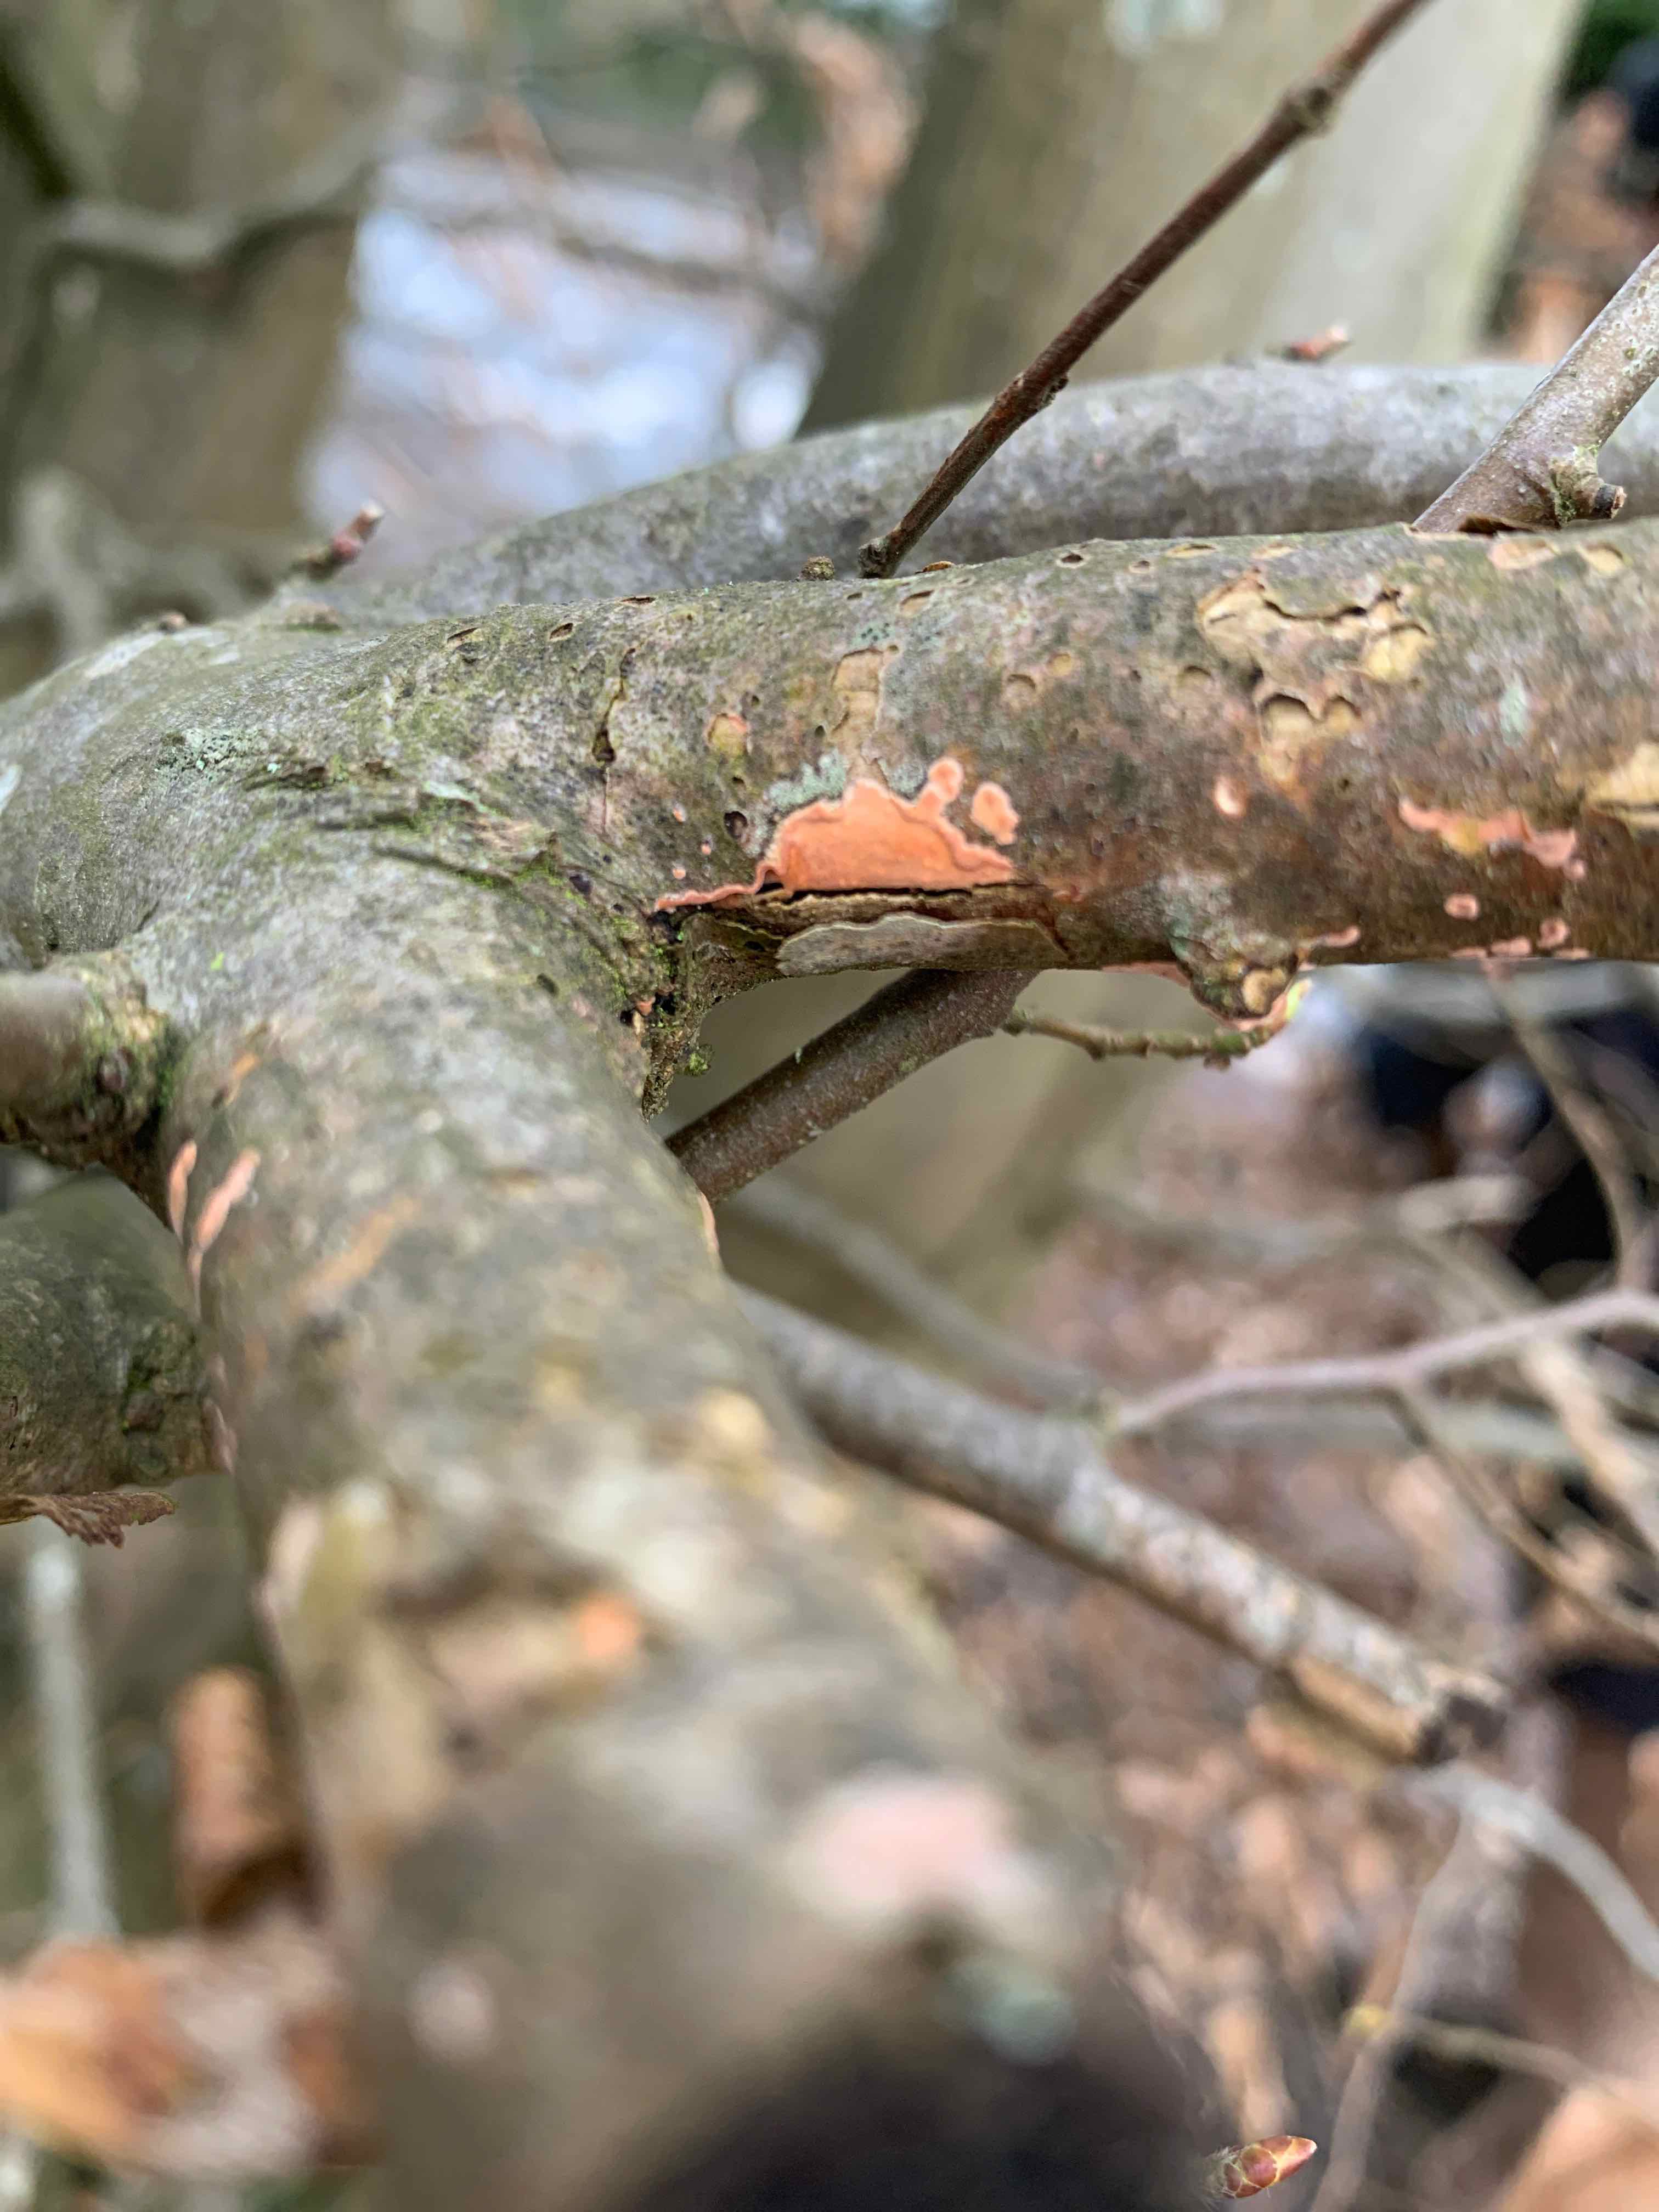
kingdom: Fungi
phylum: Basidiomycota
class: Agaricomycetes
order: Russulales
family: Peniophoraceae
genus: Peniophora
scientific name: Peniophora incarnata
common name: laksefarvet voksskind
